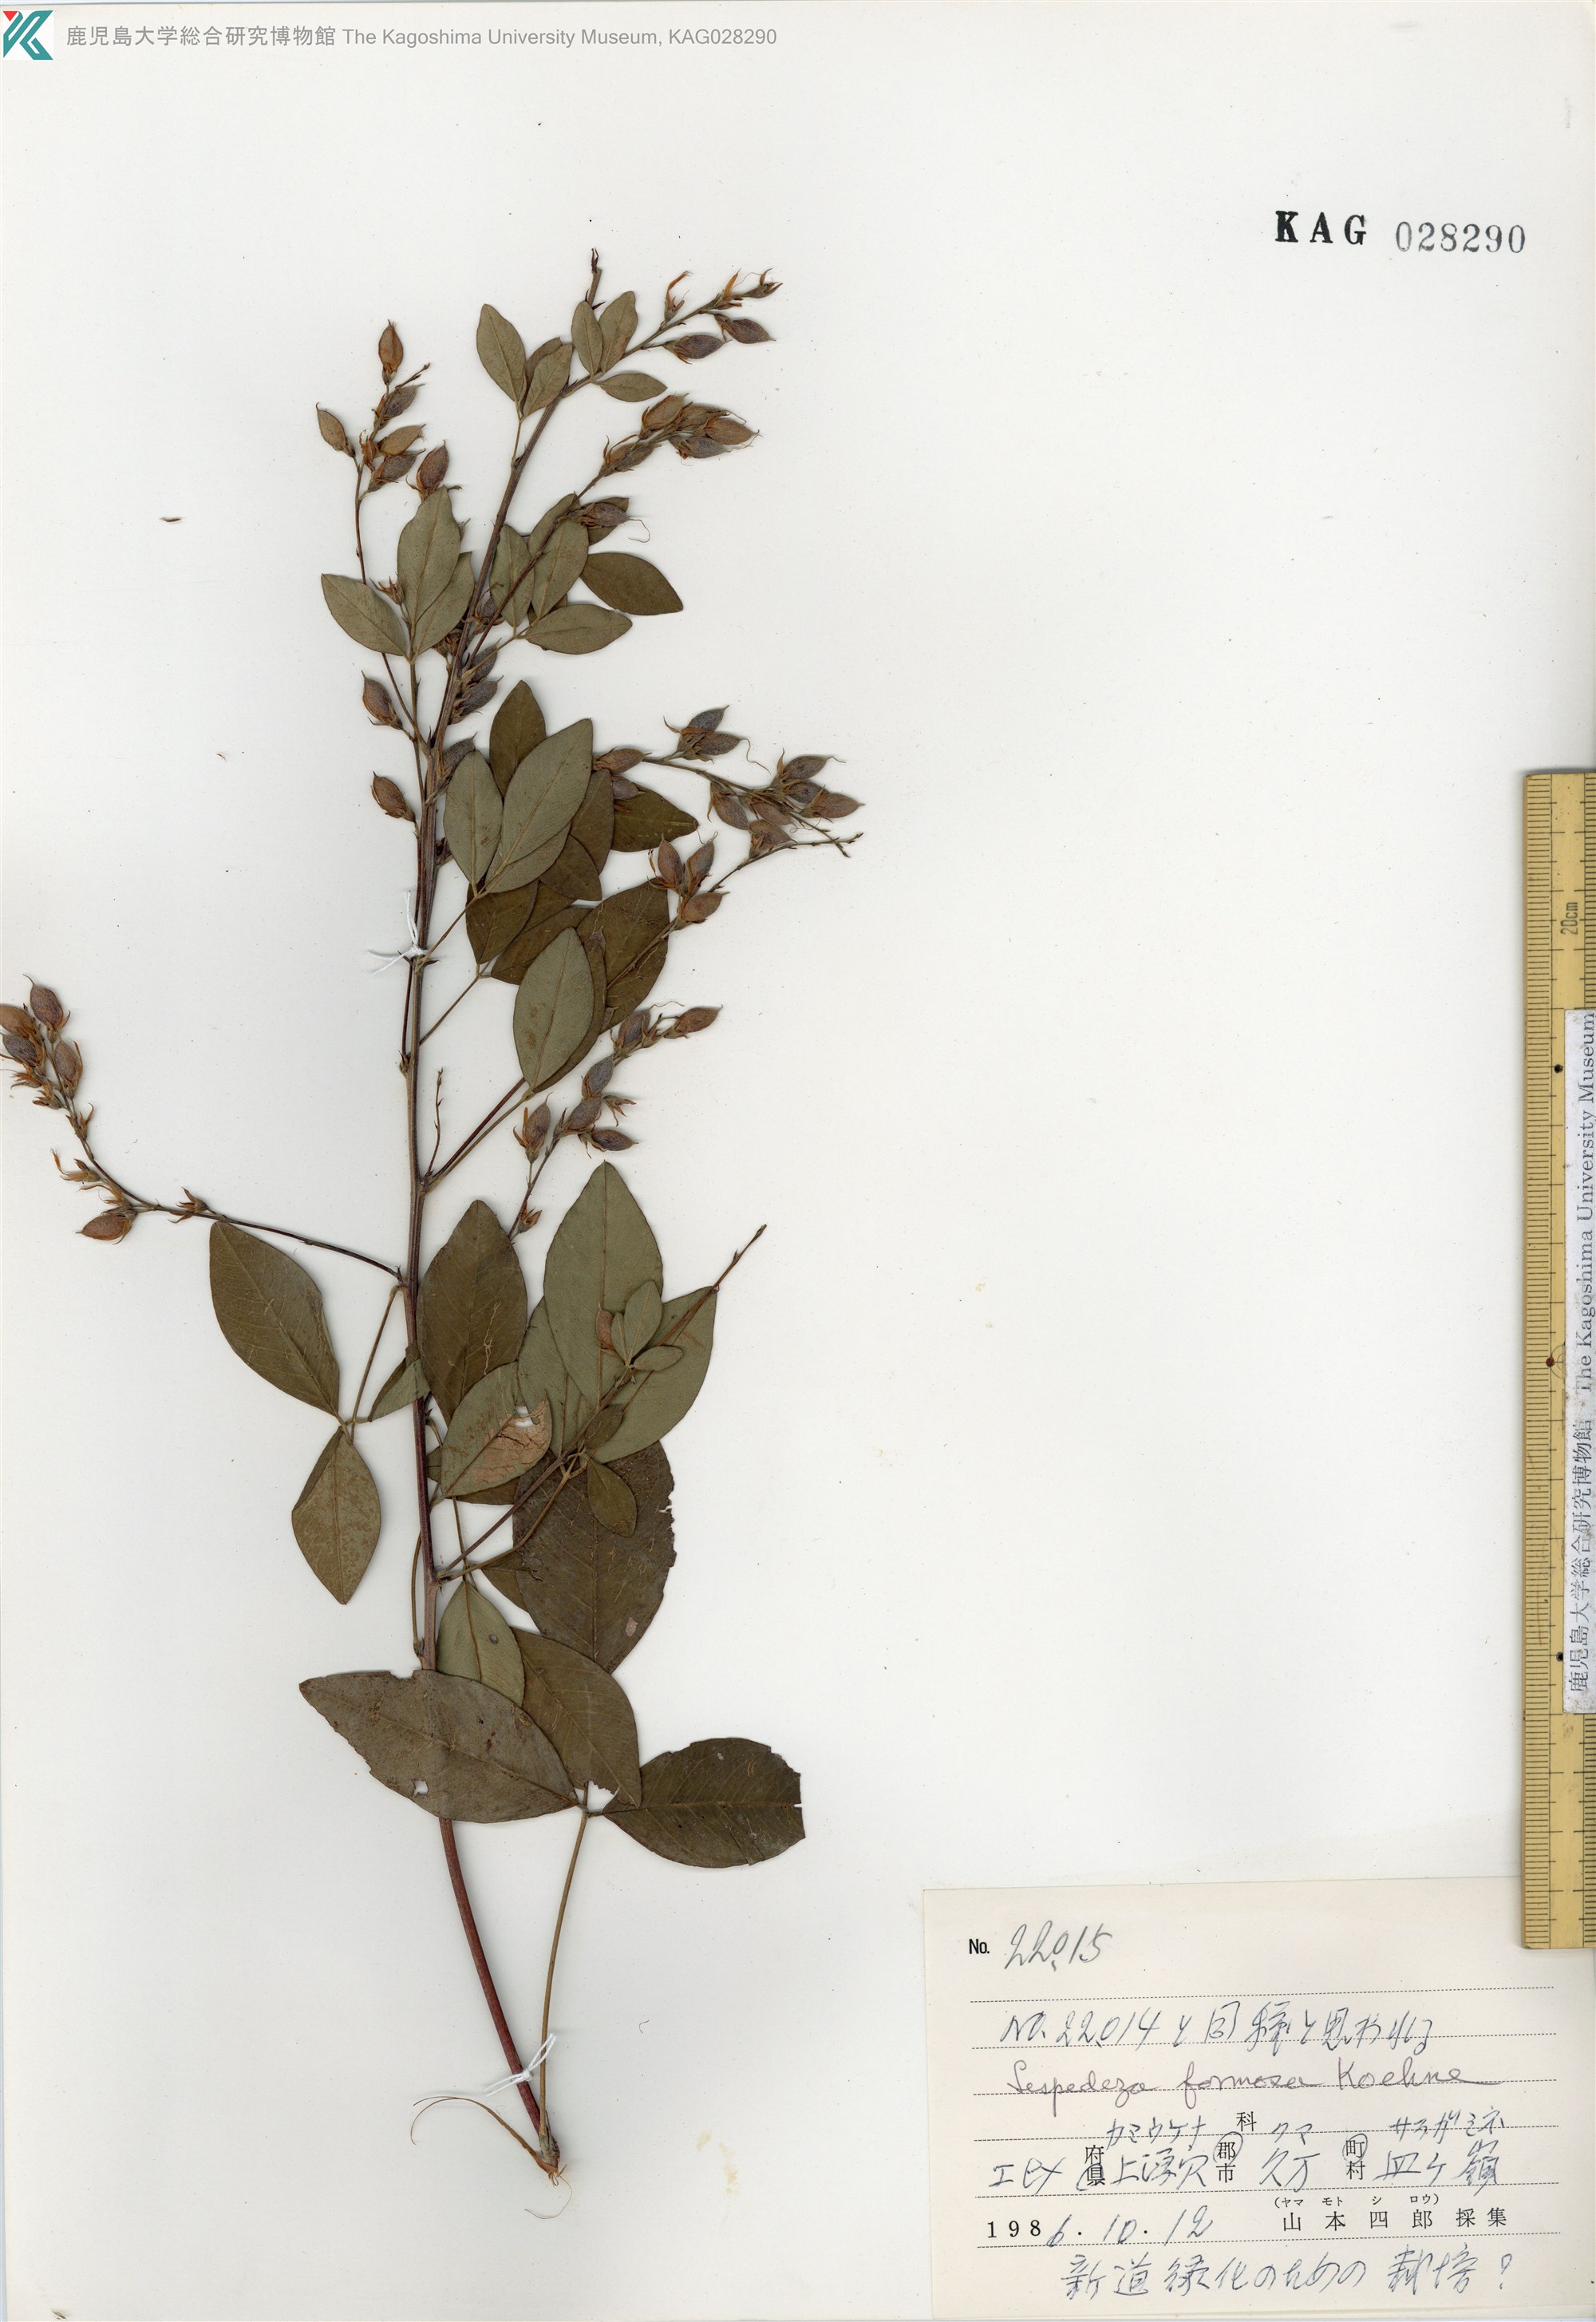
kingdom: Plantae
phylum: Tracheophyta
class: Magnoliopsida
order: Fabales
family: Fabaceae
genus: Lespedeza
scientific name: Lespedeza thunbergii
